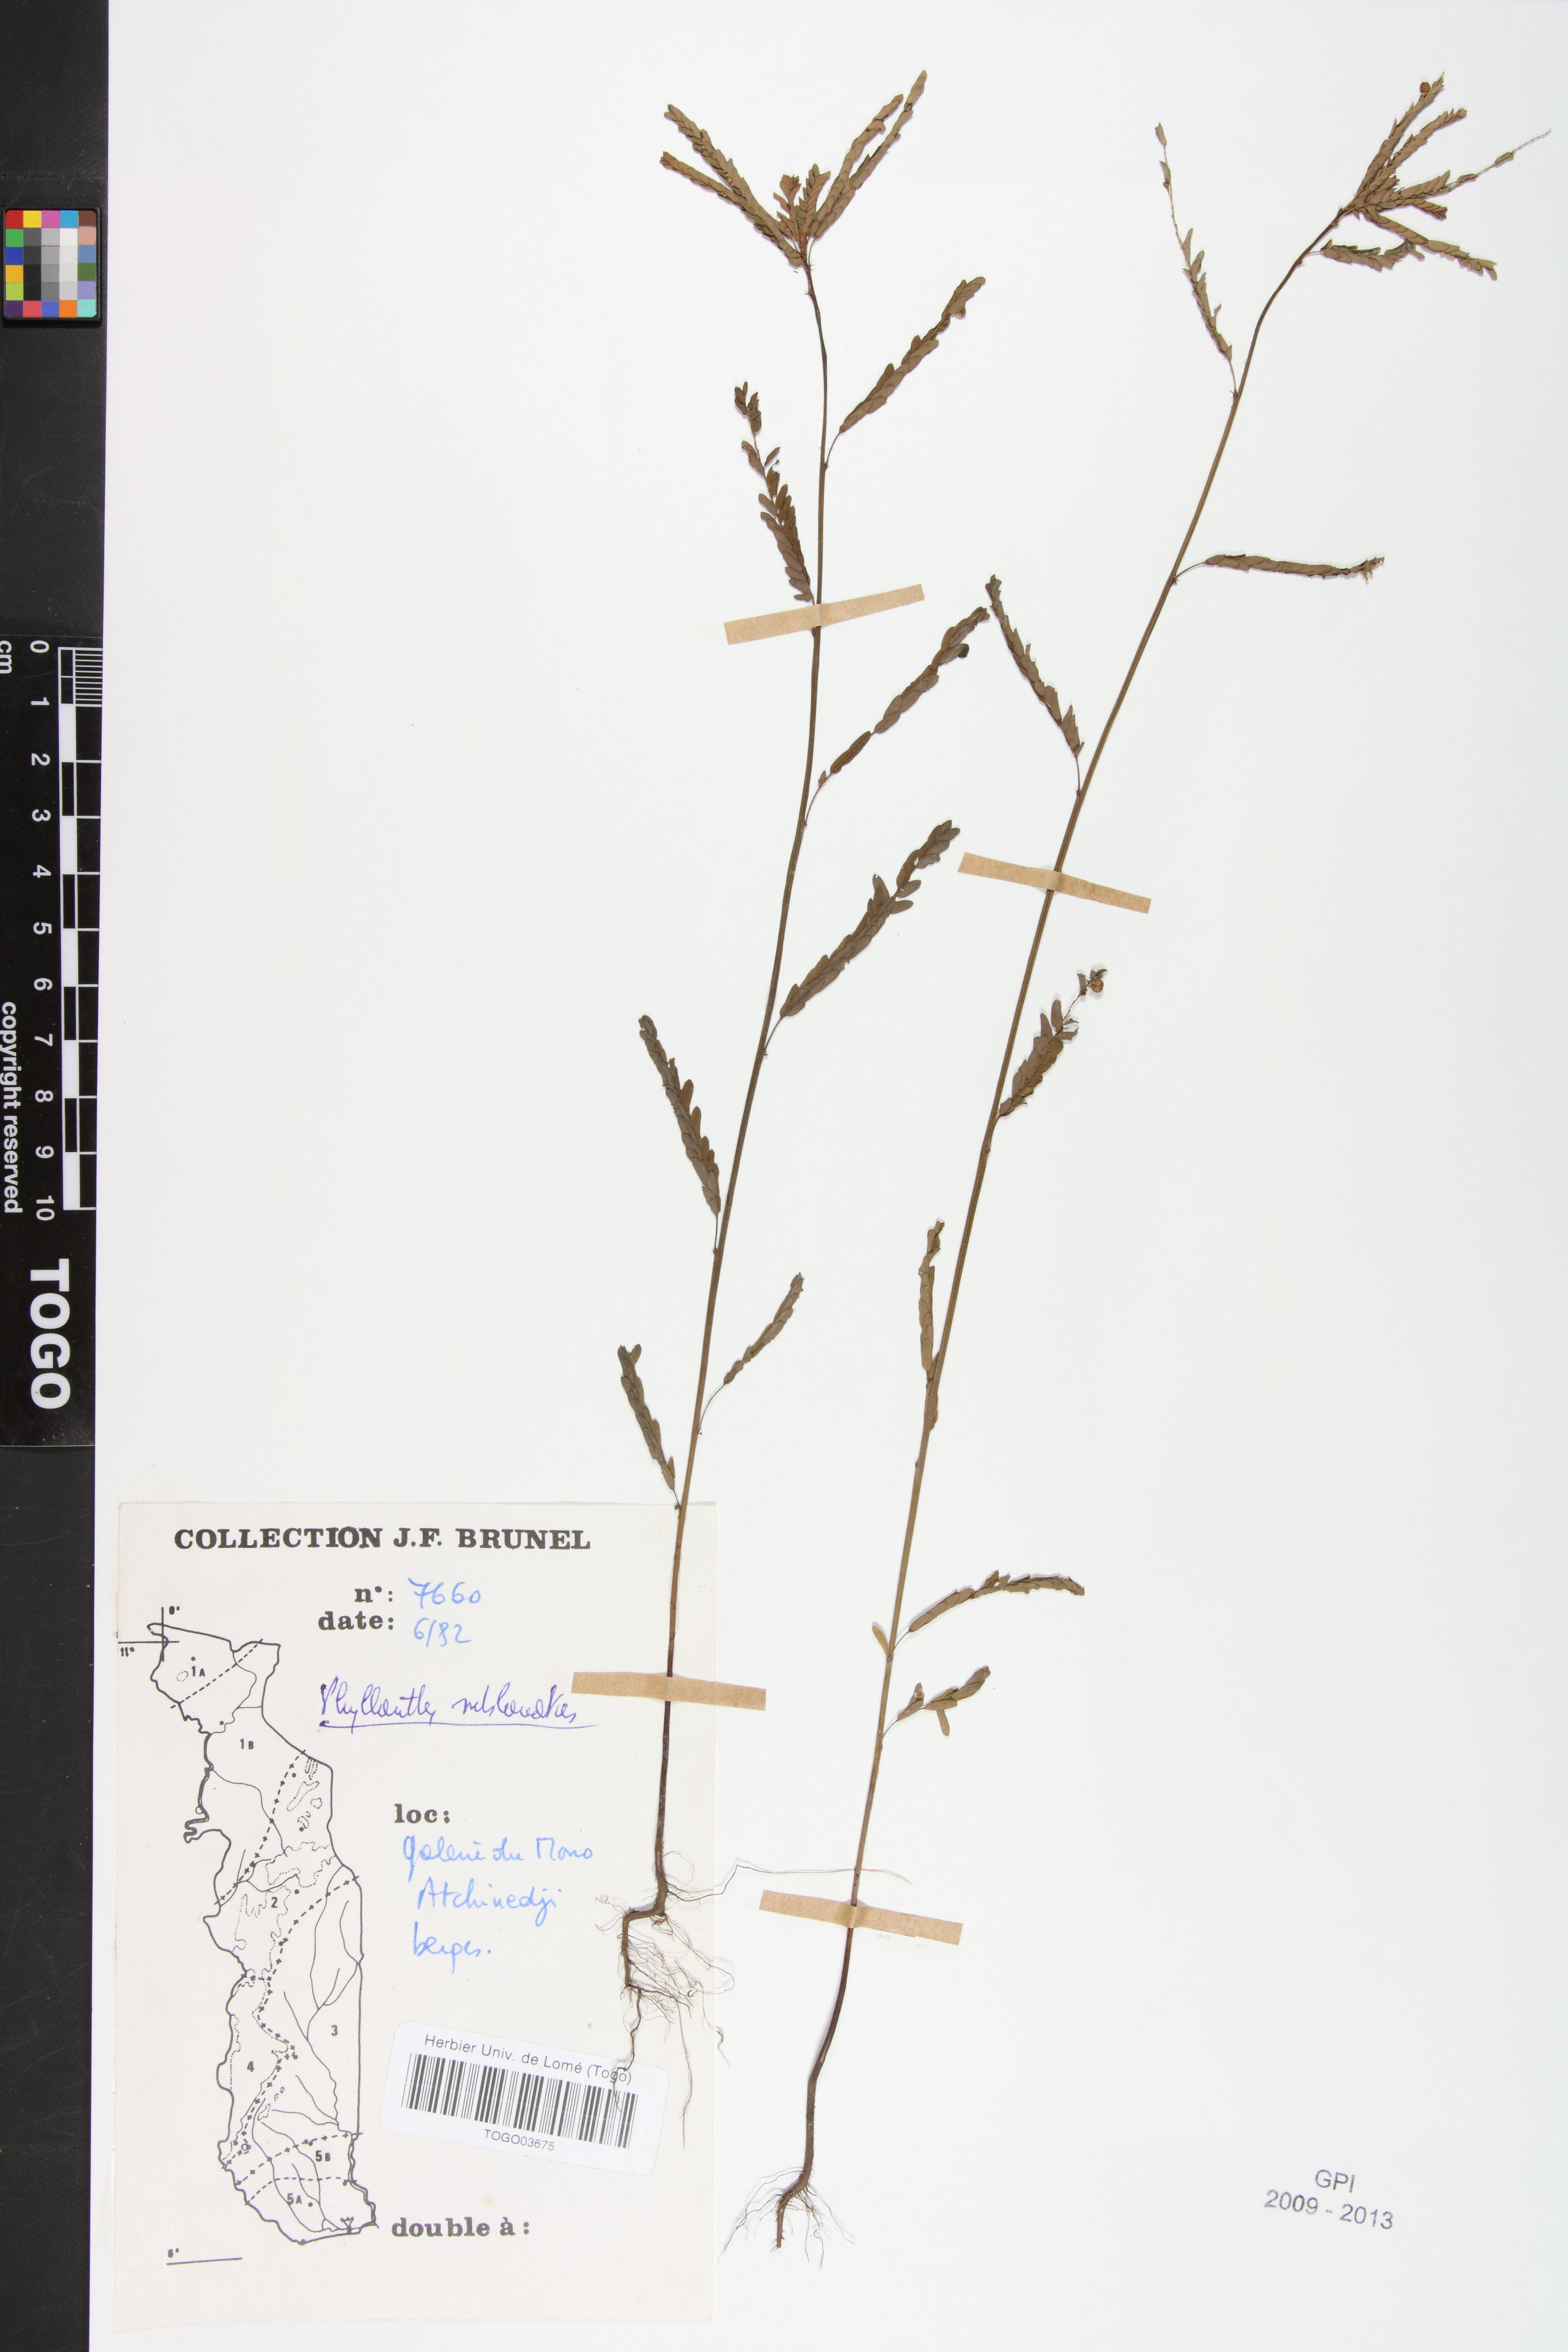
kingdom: Plantae
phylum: Tracheophyta
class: Magnoliopsida
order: Malpighiales
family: Phyllanthaceae
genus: Phyllanthus
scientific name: Phyllanthus sublanatus
